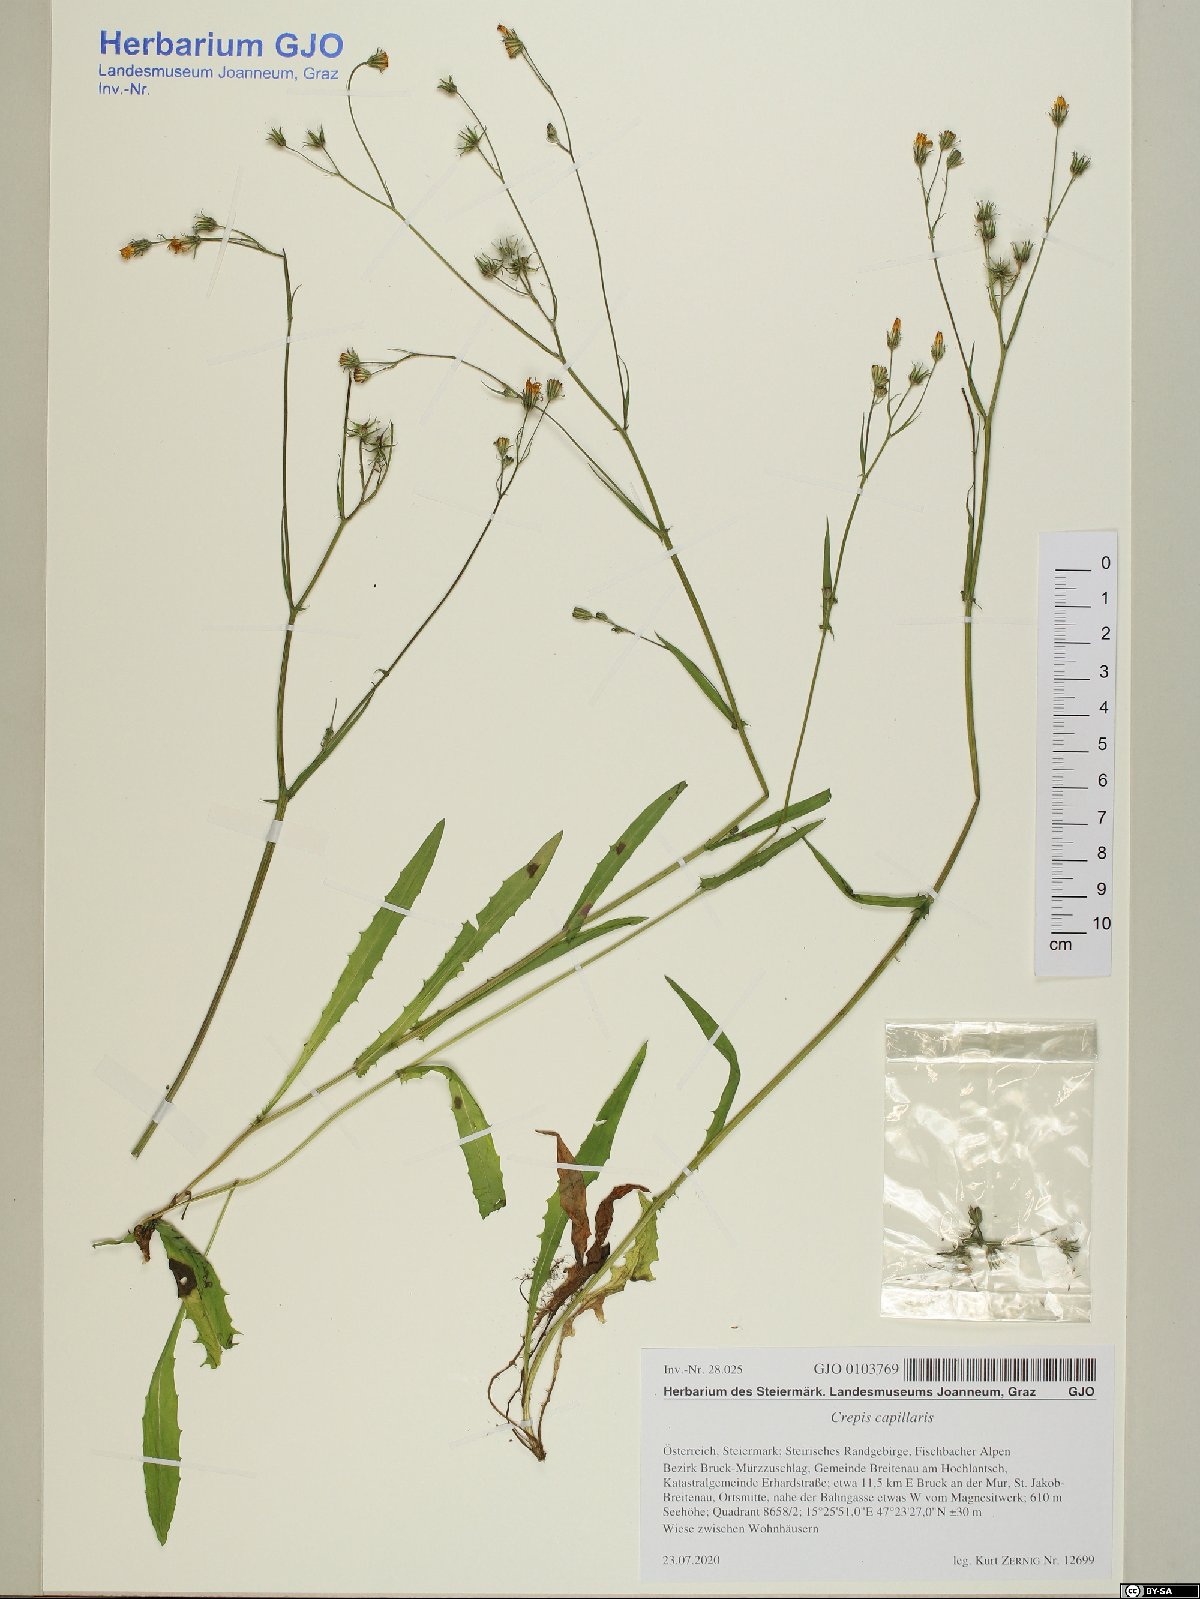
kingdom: Plantae
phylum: Tracheophyta
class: Magnoliopsida
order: Asterales
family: Asteraceae
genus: Crepis
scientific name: Crepis capillaris
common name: Smooth hawksbeard
